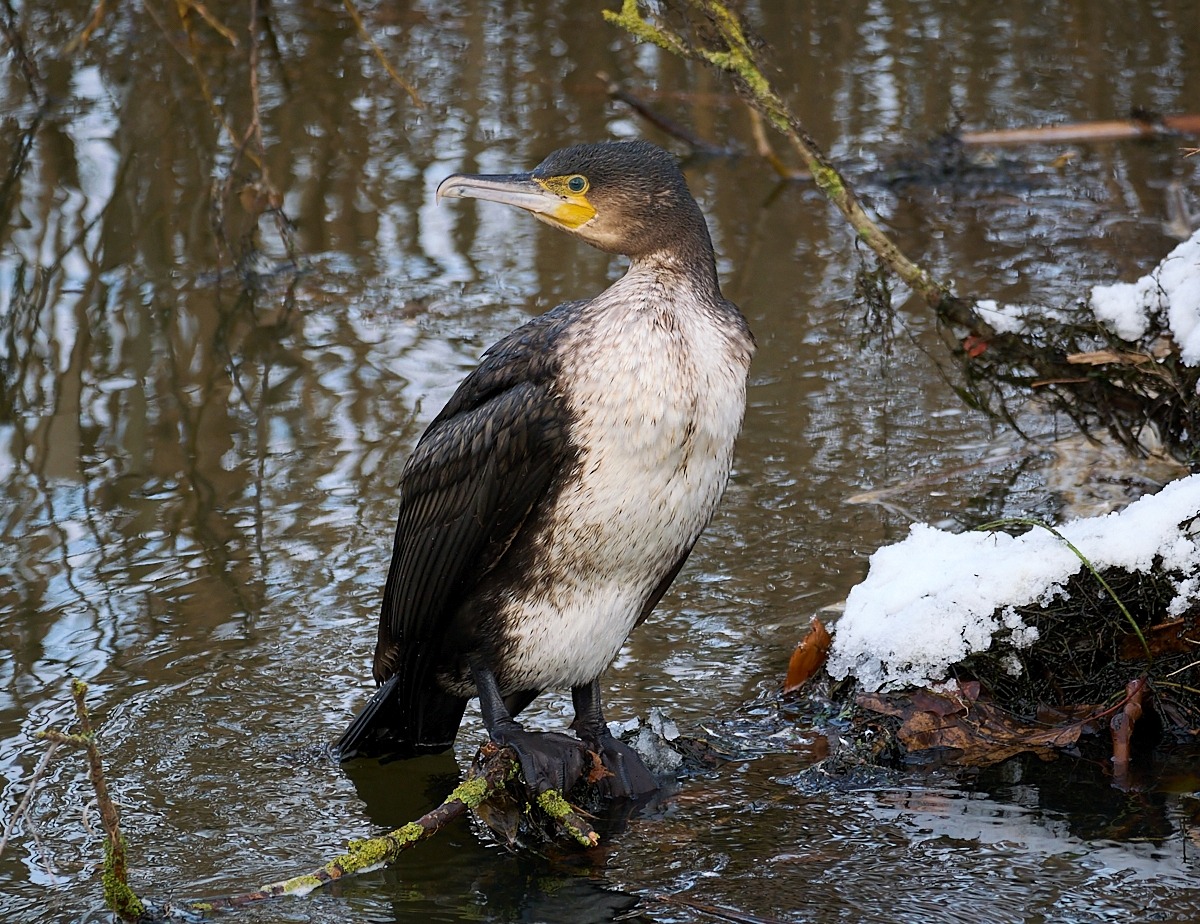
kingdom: Animalia
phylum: Chordata
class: Aves
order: Suliformes
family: Phalacrocoracidae
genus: Phalacrocorax
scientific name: Phalacrocorax carbo
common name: Skarv
